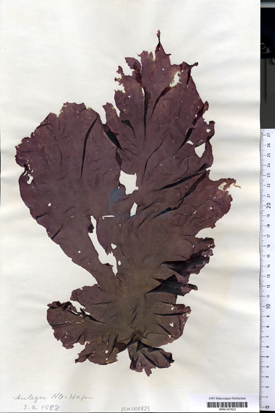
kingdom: Plantae
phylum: Rhodophyta
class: Bangiophyceae
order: Bangiales
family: Bangiaceae
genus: Porphyra
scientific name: Porphyra umbilicalis
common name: Purple laver
